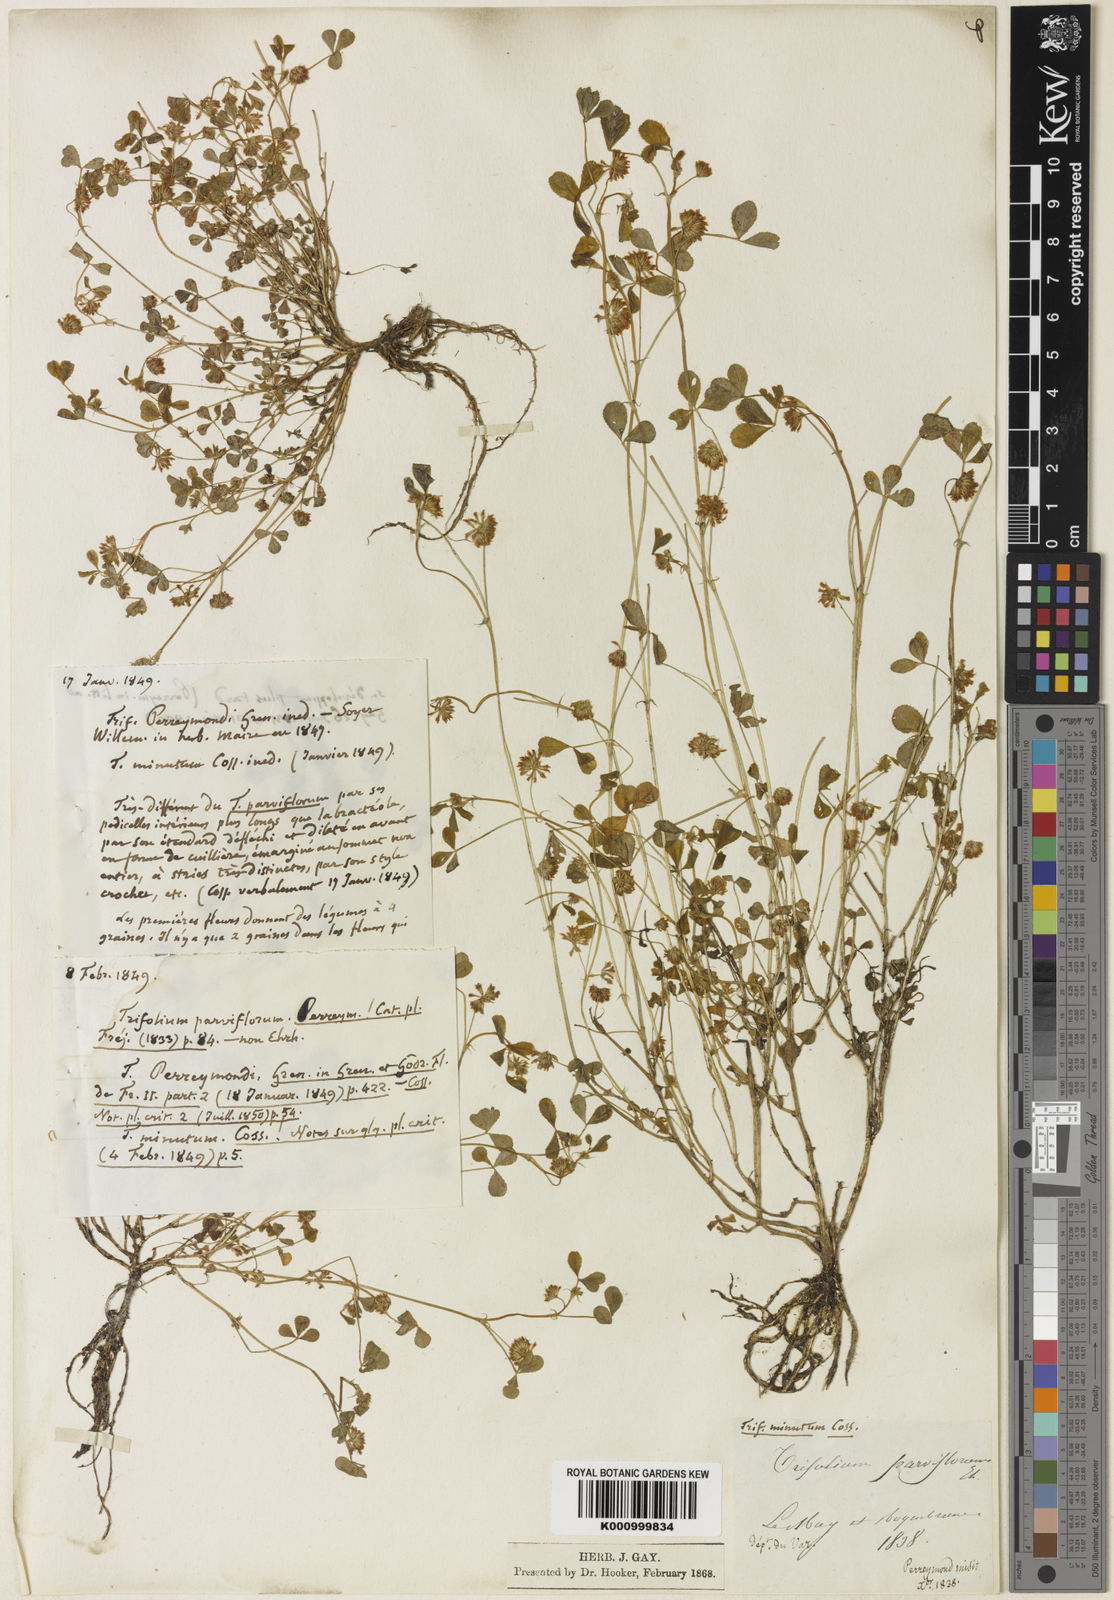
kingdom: Plantae
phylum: Tracheophyta
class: Magnoliopsida
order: Fabales
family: Fabaceae
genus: Trifolium
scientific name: Trifolium cernuum
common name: Nodding clover
